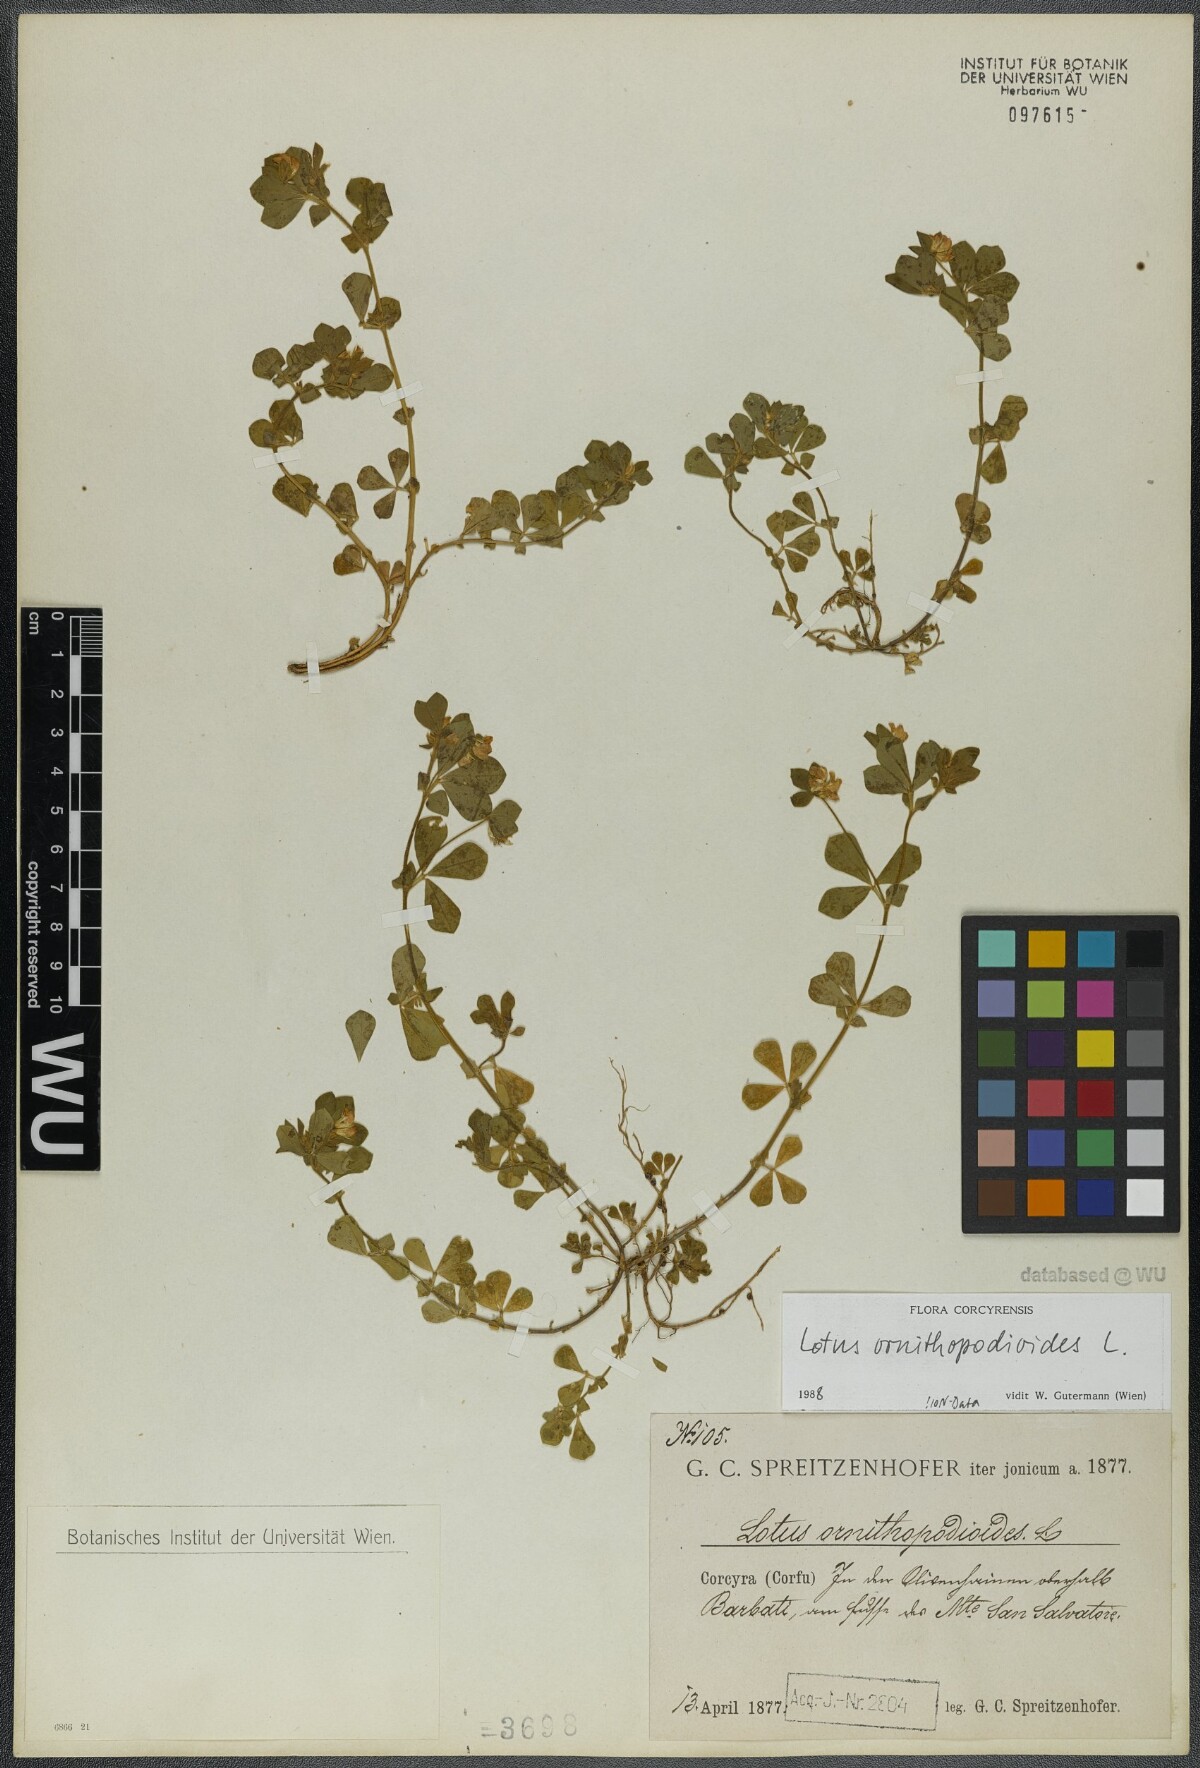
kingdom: Plantae
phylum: Tracheophyta
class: Magnoliopsida
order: Fabales
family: Fabaceae
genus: Lotus
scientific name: Lotus ornithopodioides
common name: Southern bird's-foot trefoil
